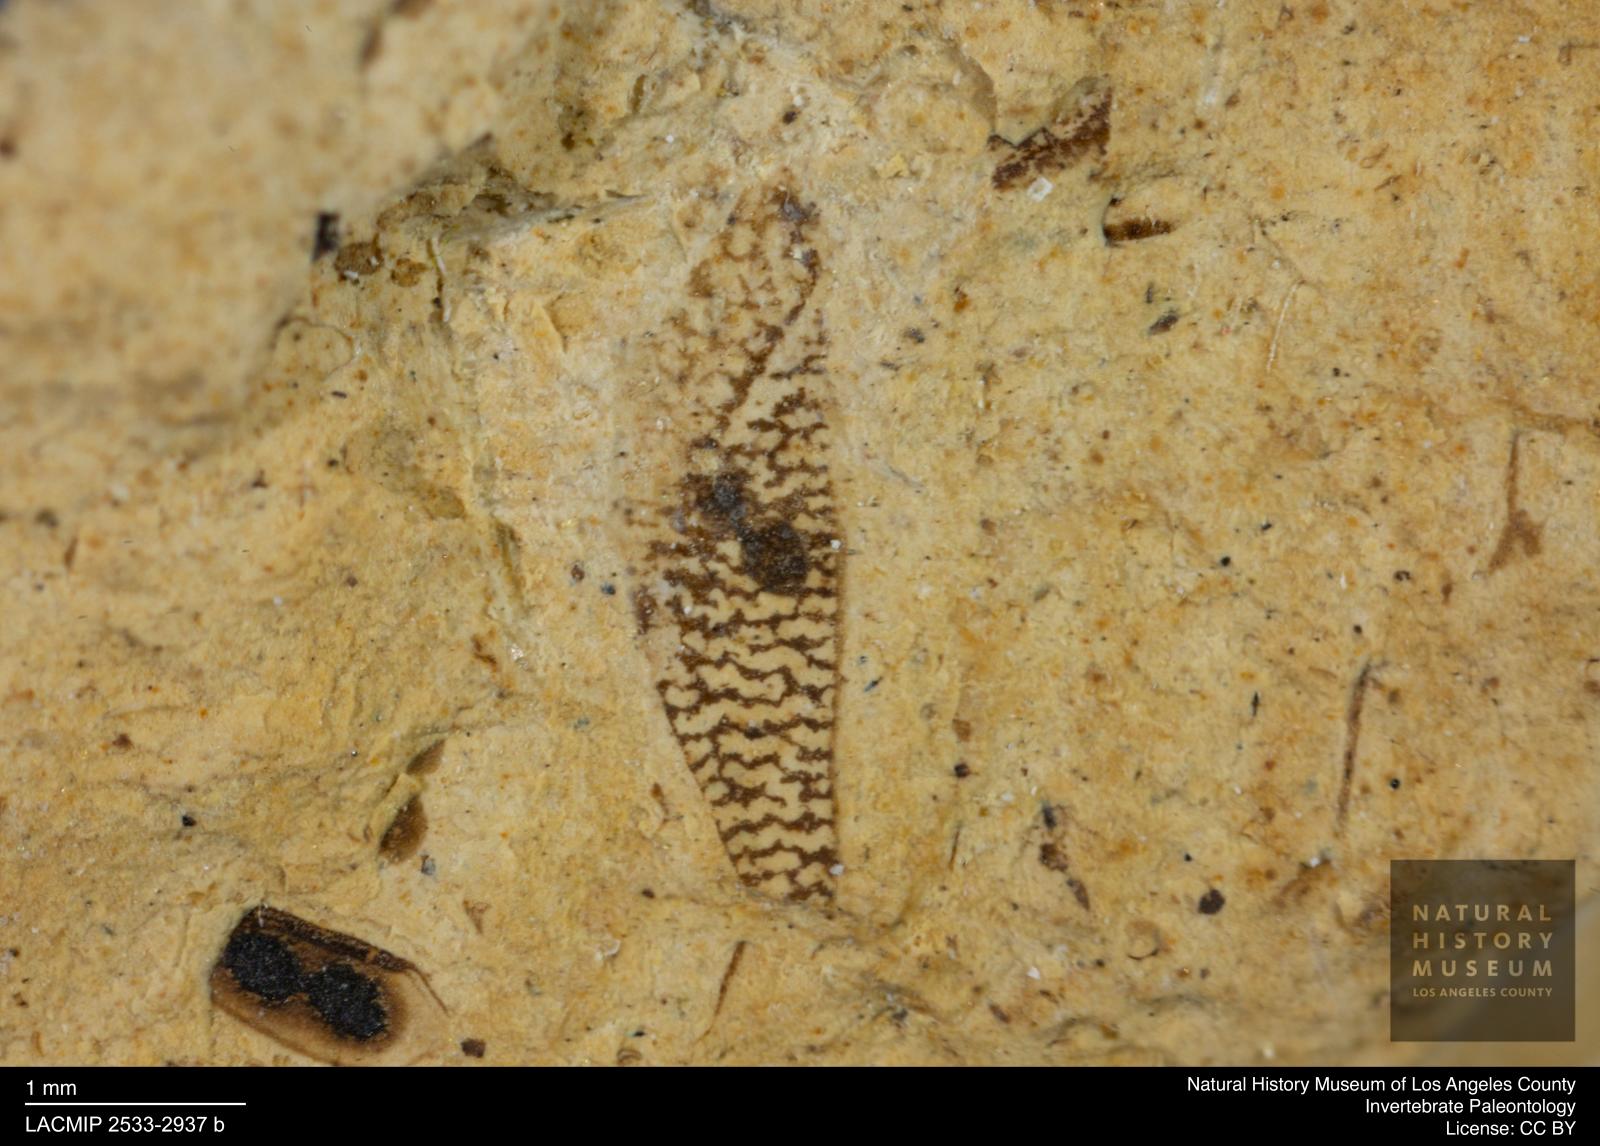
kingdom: Animalia
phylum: Arthropoda
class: Insecta
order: Hemiptera
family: Corixidae
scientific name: Corixidae
